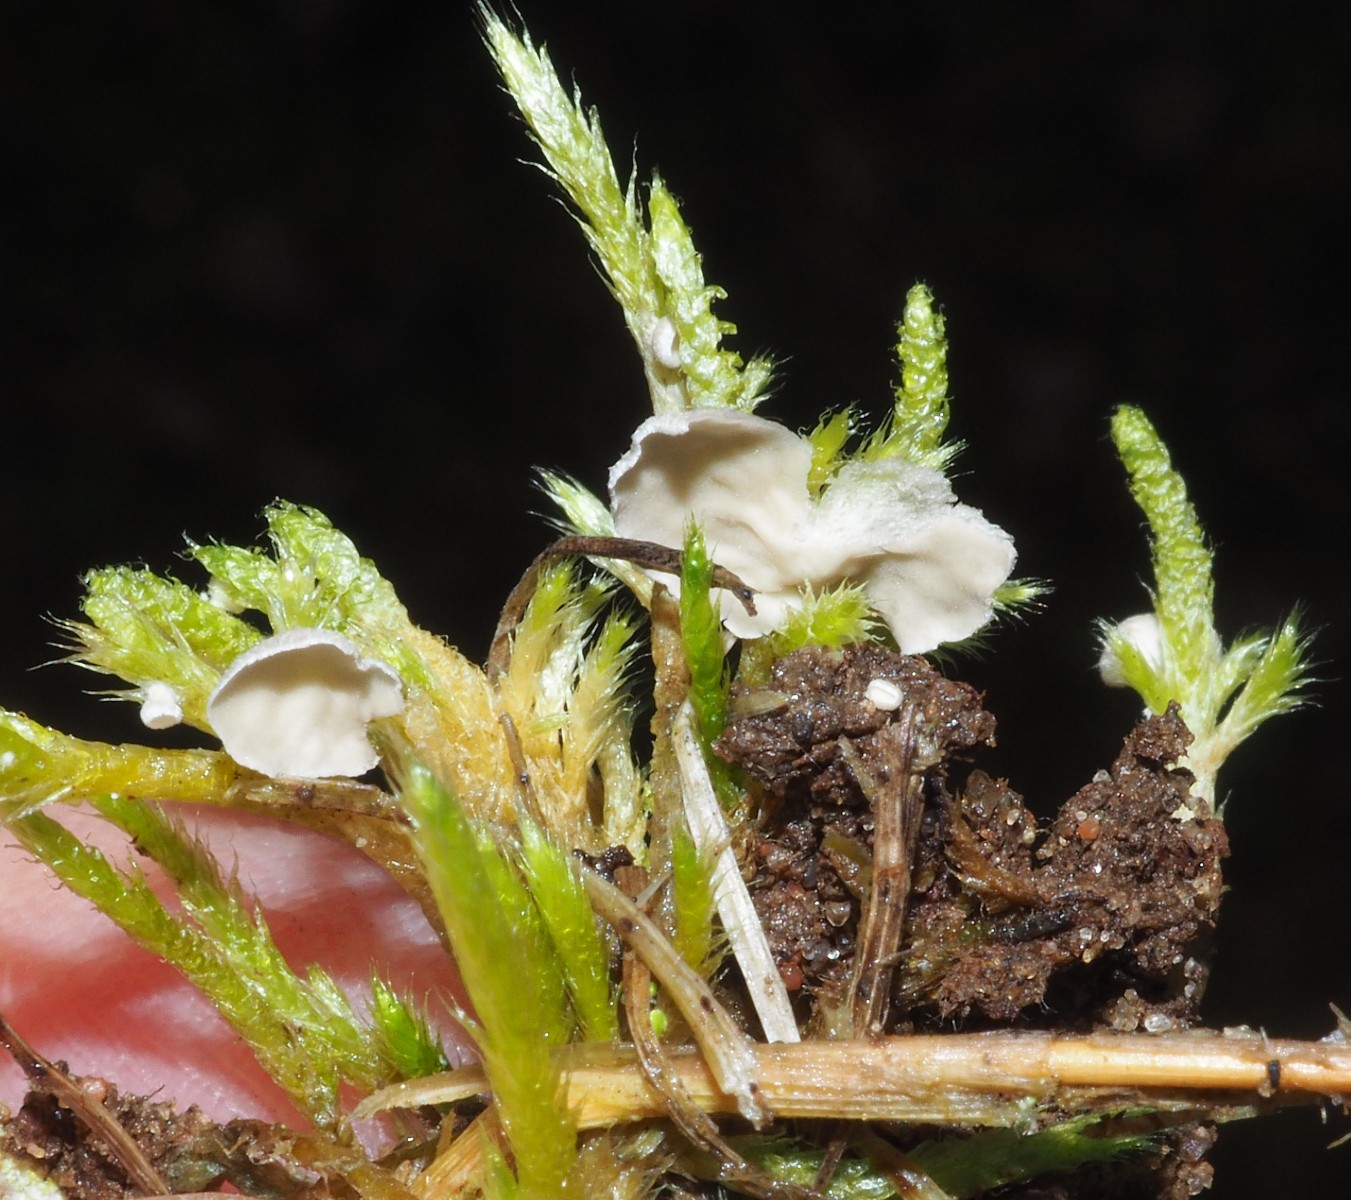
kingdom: Fungi
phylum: Basidiomycota
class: Agaricomycetes
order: Agaricales
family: Hygrophoraceae
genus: Arrhenia
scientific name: Arrhenia retiruga
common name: lille fontænehat
